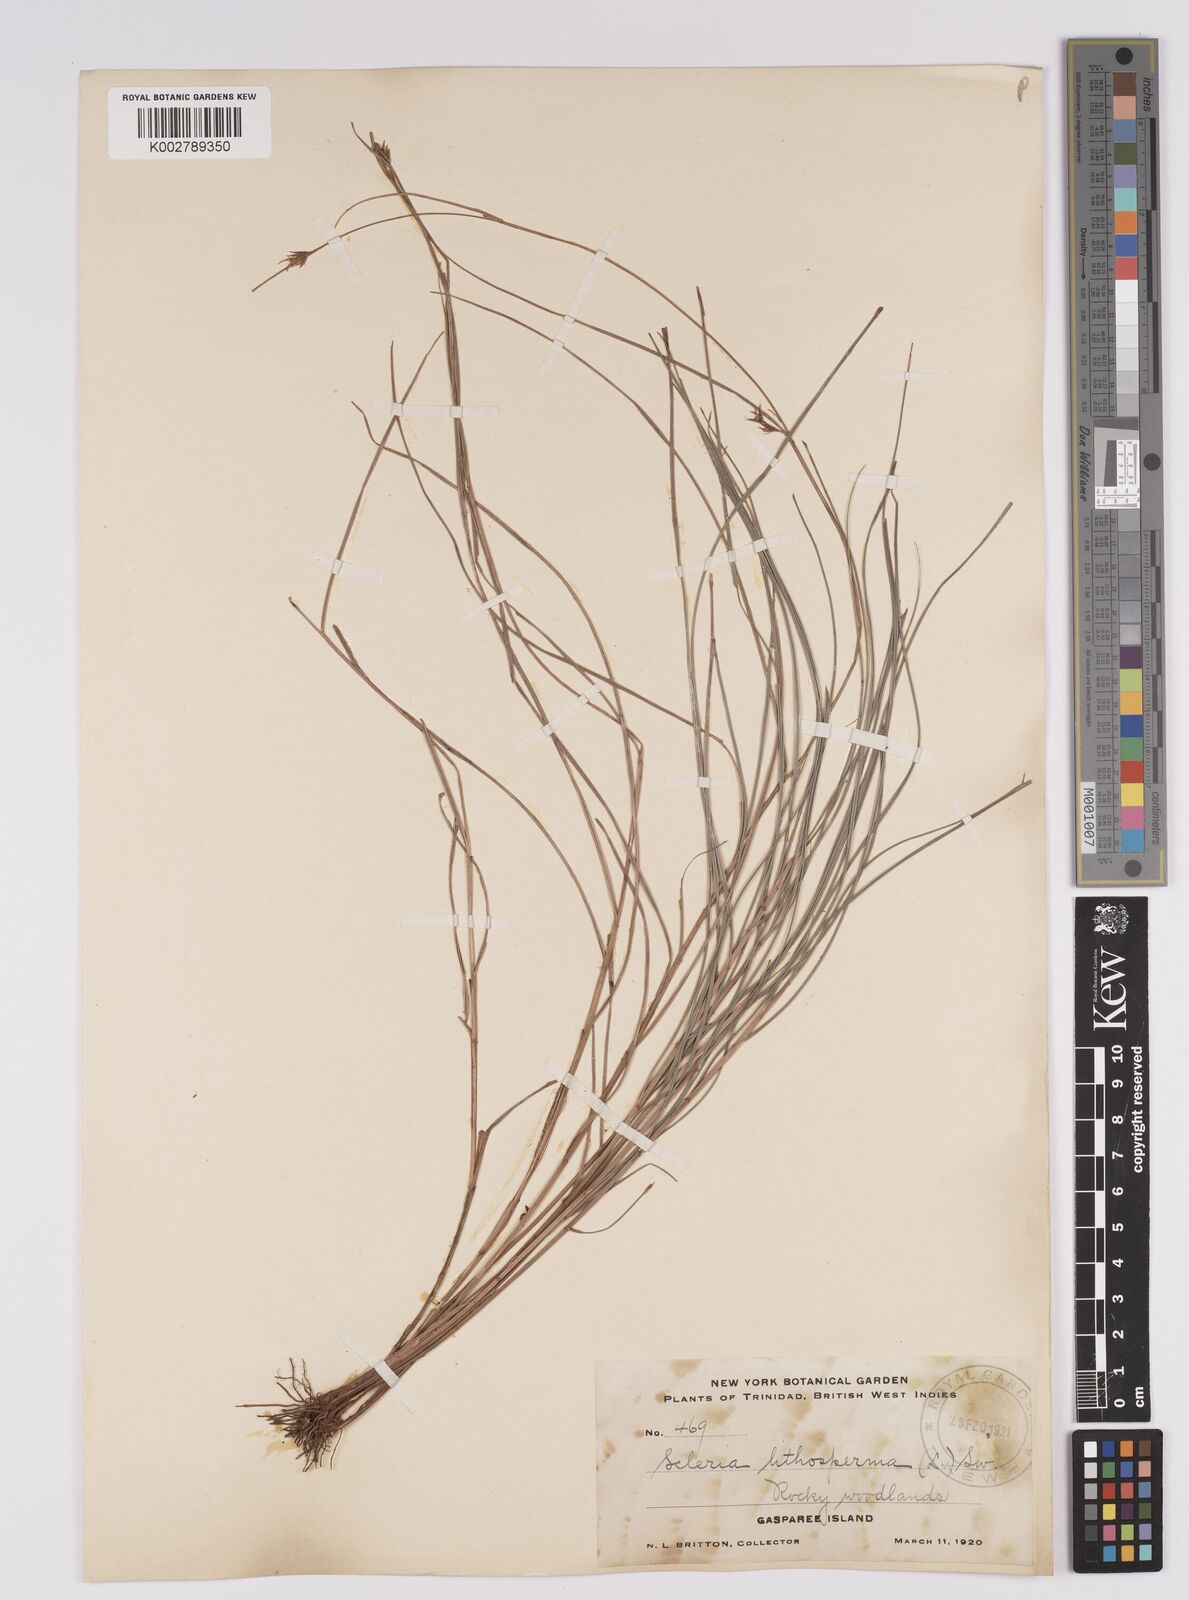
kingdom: Plantae
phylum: Tracheophyta
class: Liliopsida
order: Poales
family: Cyperaceae
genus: Scleria
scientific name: Scleria lithosperma
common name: Florida keys nut-rush
